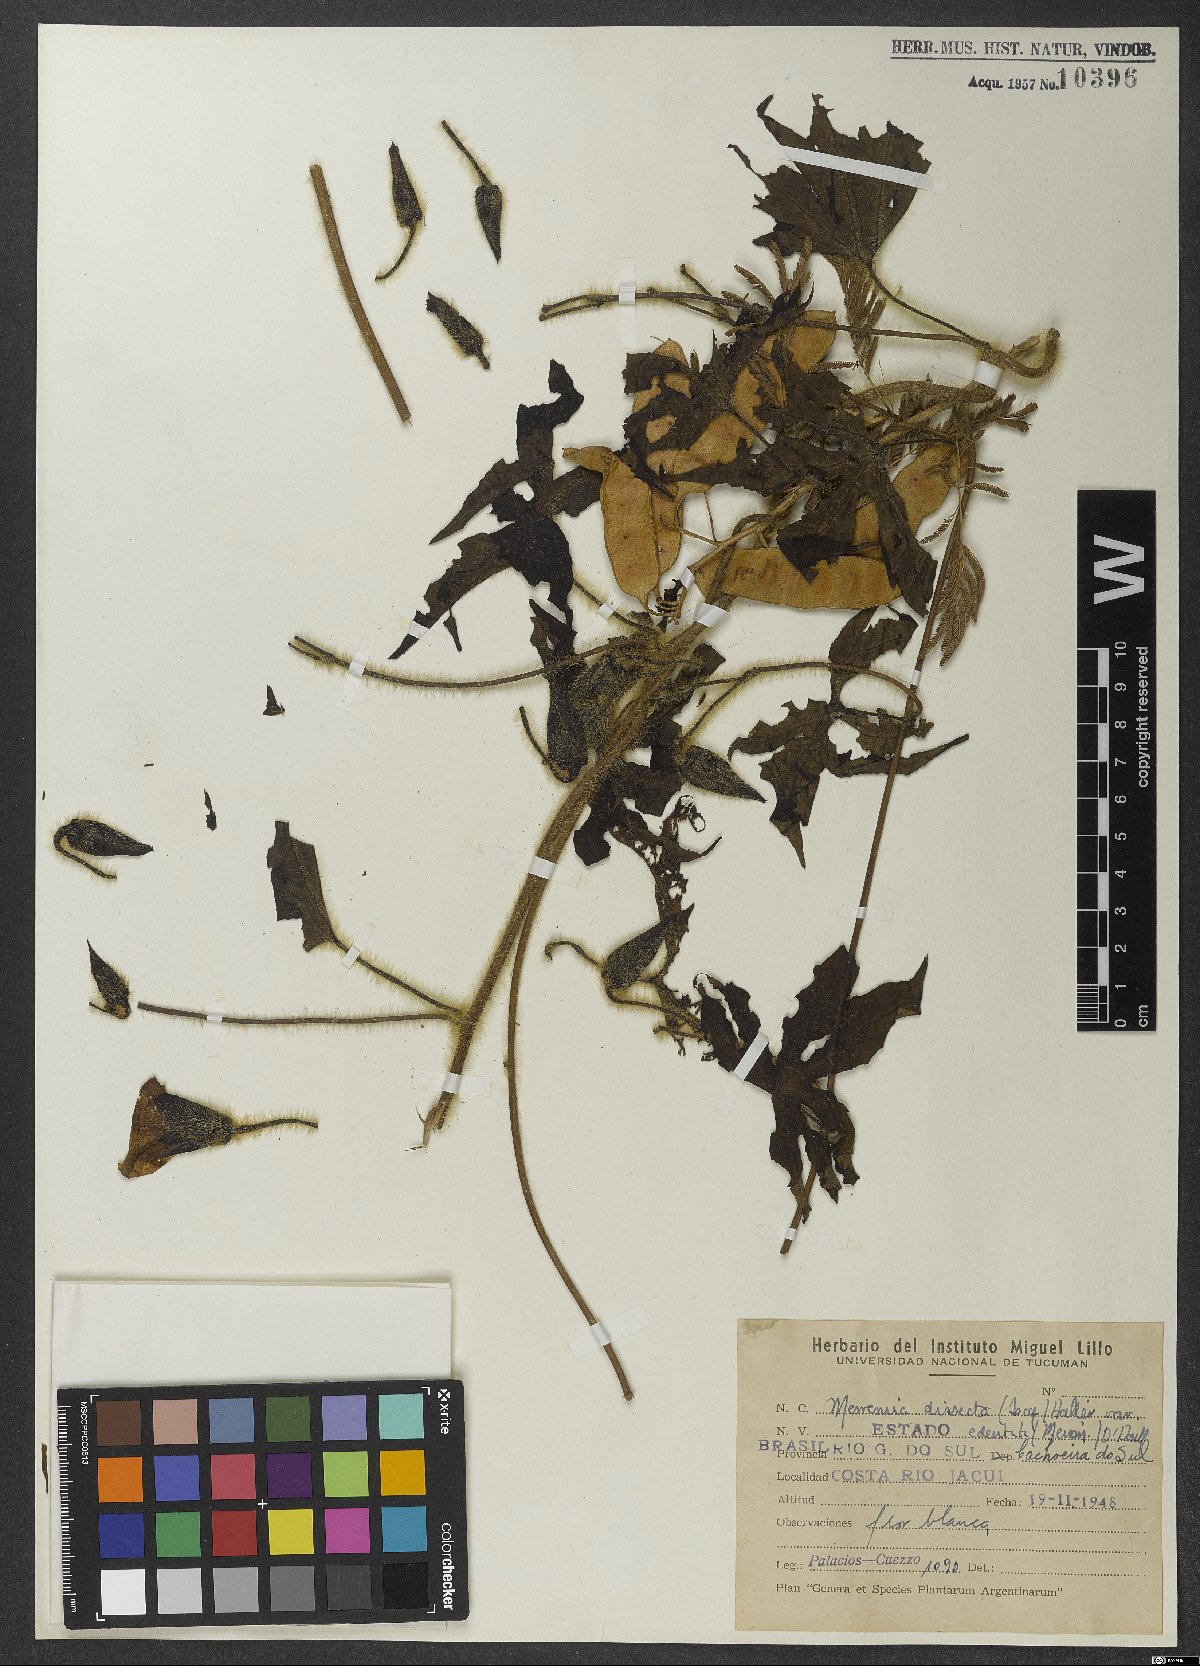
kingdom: Plantae
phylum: Tracheophyta
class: Magnoliopsida
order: Solanales
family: Convolvulaceae
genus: Distimake
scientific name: Distimake dissectus
